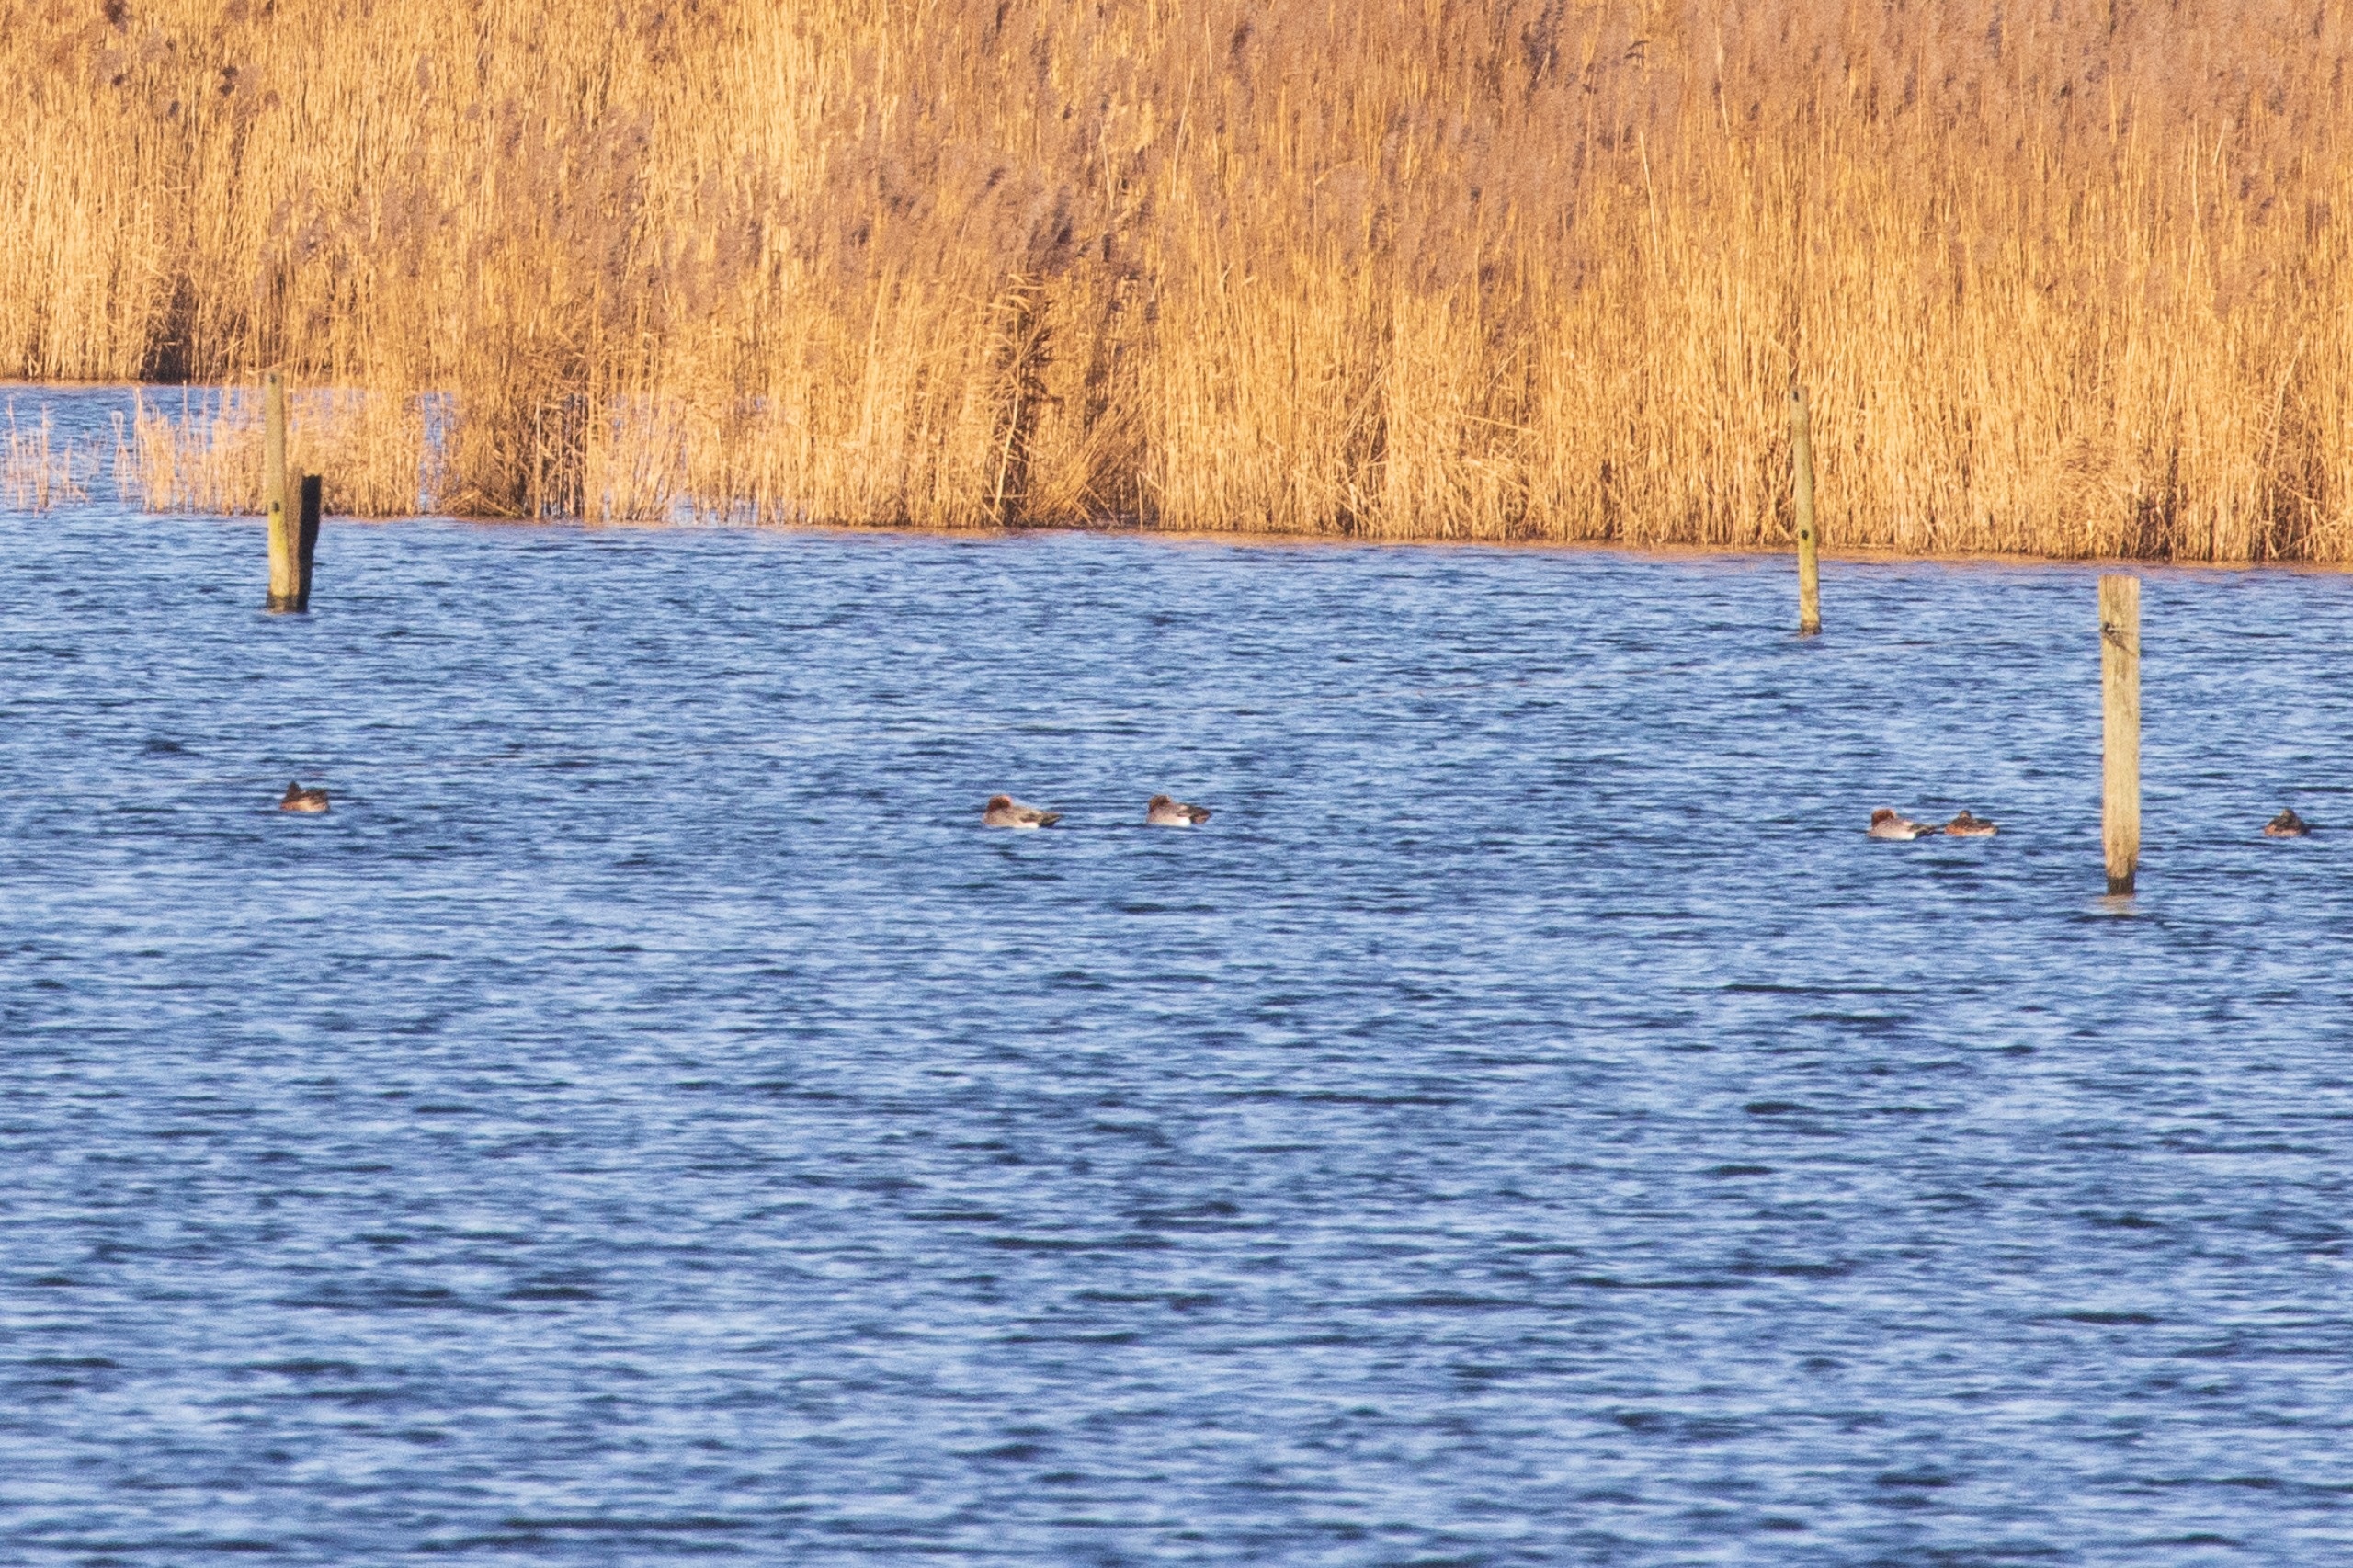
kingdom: Animalia
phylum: Chordata
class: Aves
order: Anseriformes
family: Anatidae
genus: Mareca
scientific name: Mareca penelope
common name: Pibeand
